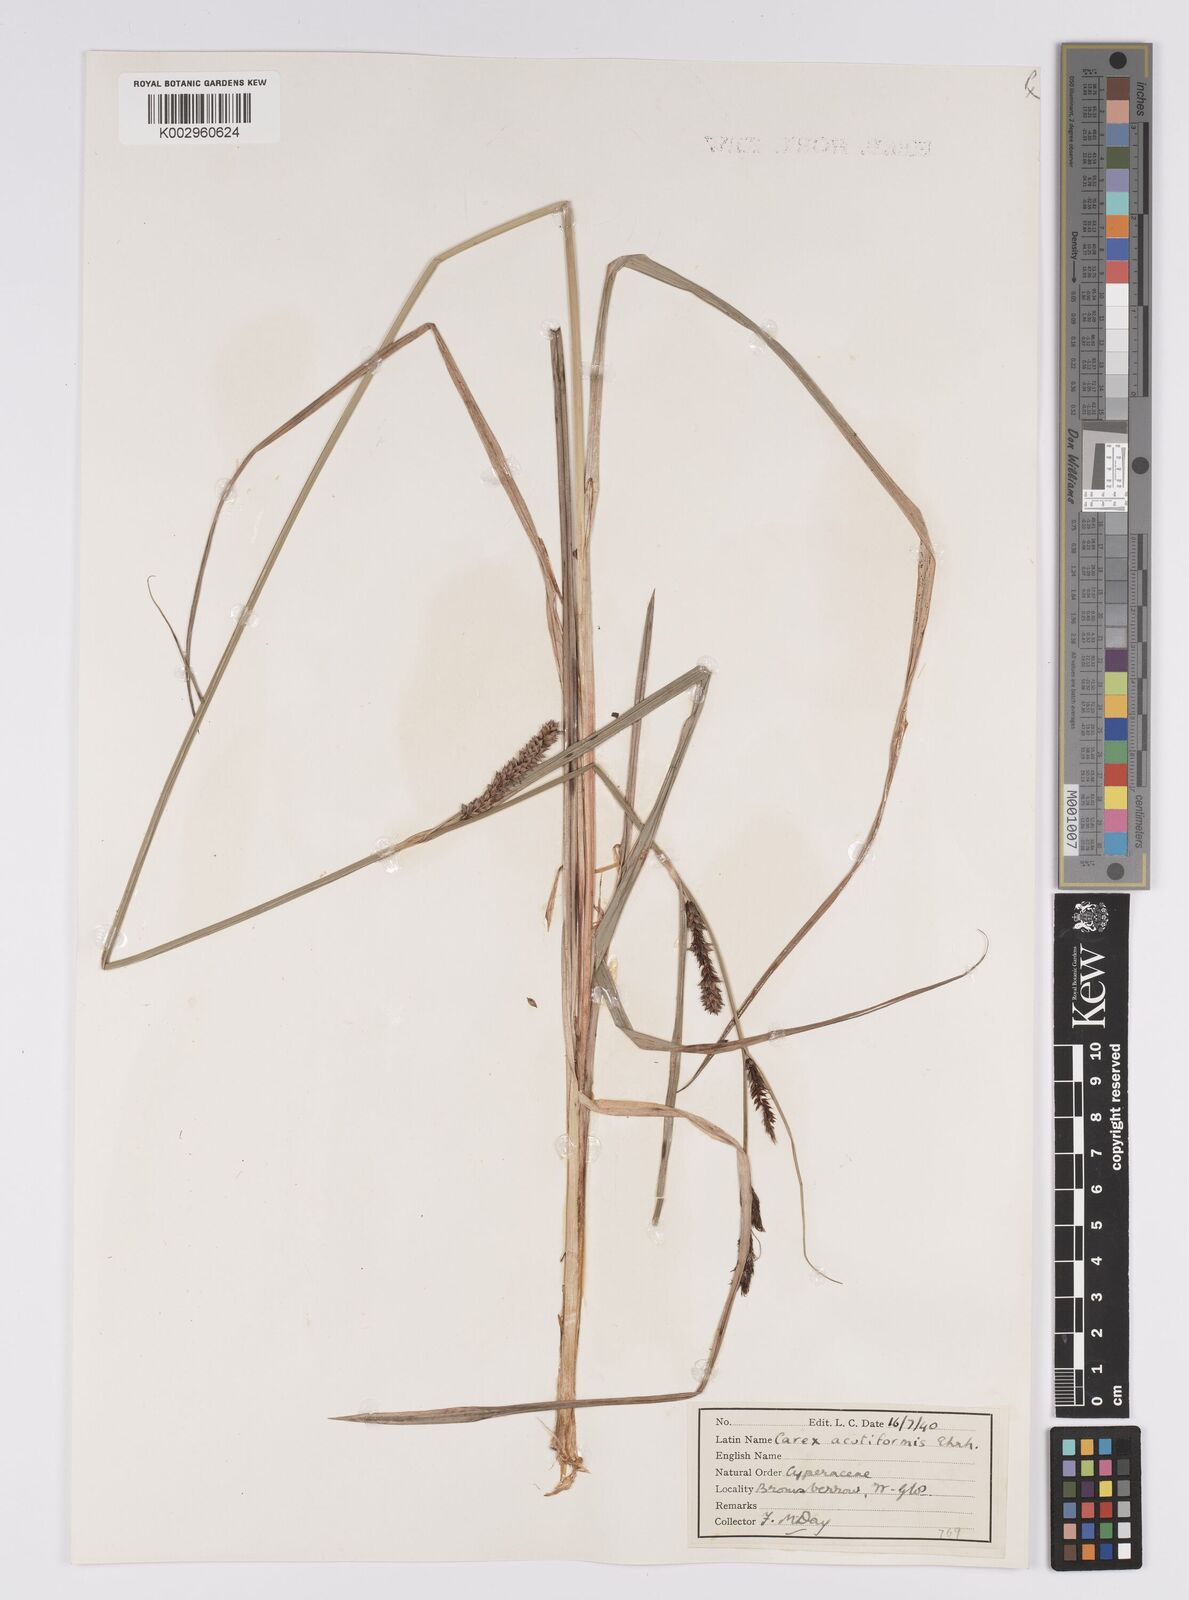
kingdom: Plantae
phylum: Tracheophyta
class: Liliopsida
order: Poales
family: Cyperaceae
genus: Carex
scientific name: Carex acutiformis
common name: Lesser pond-sedge
